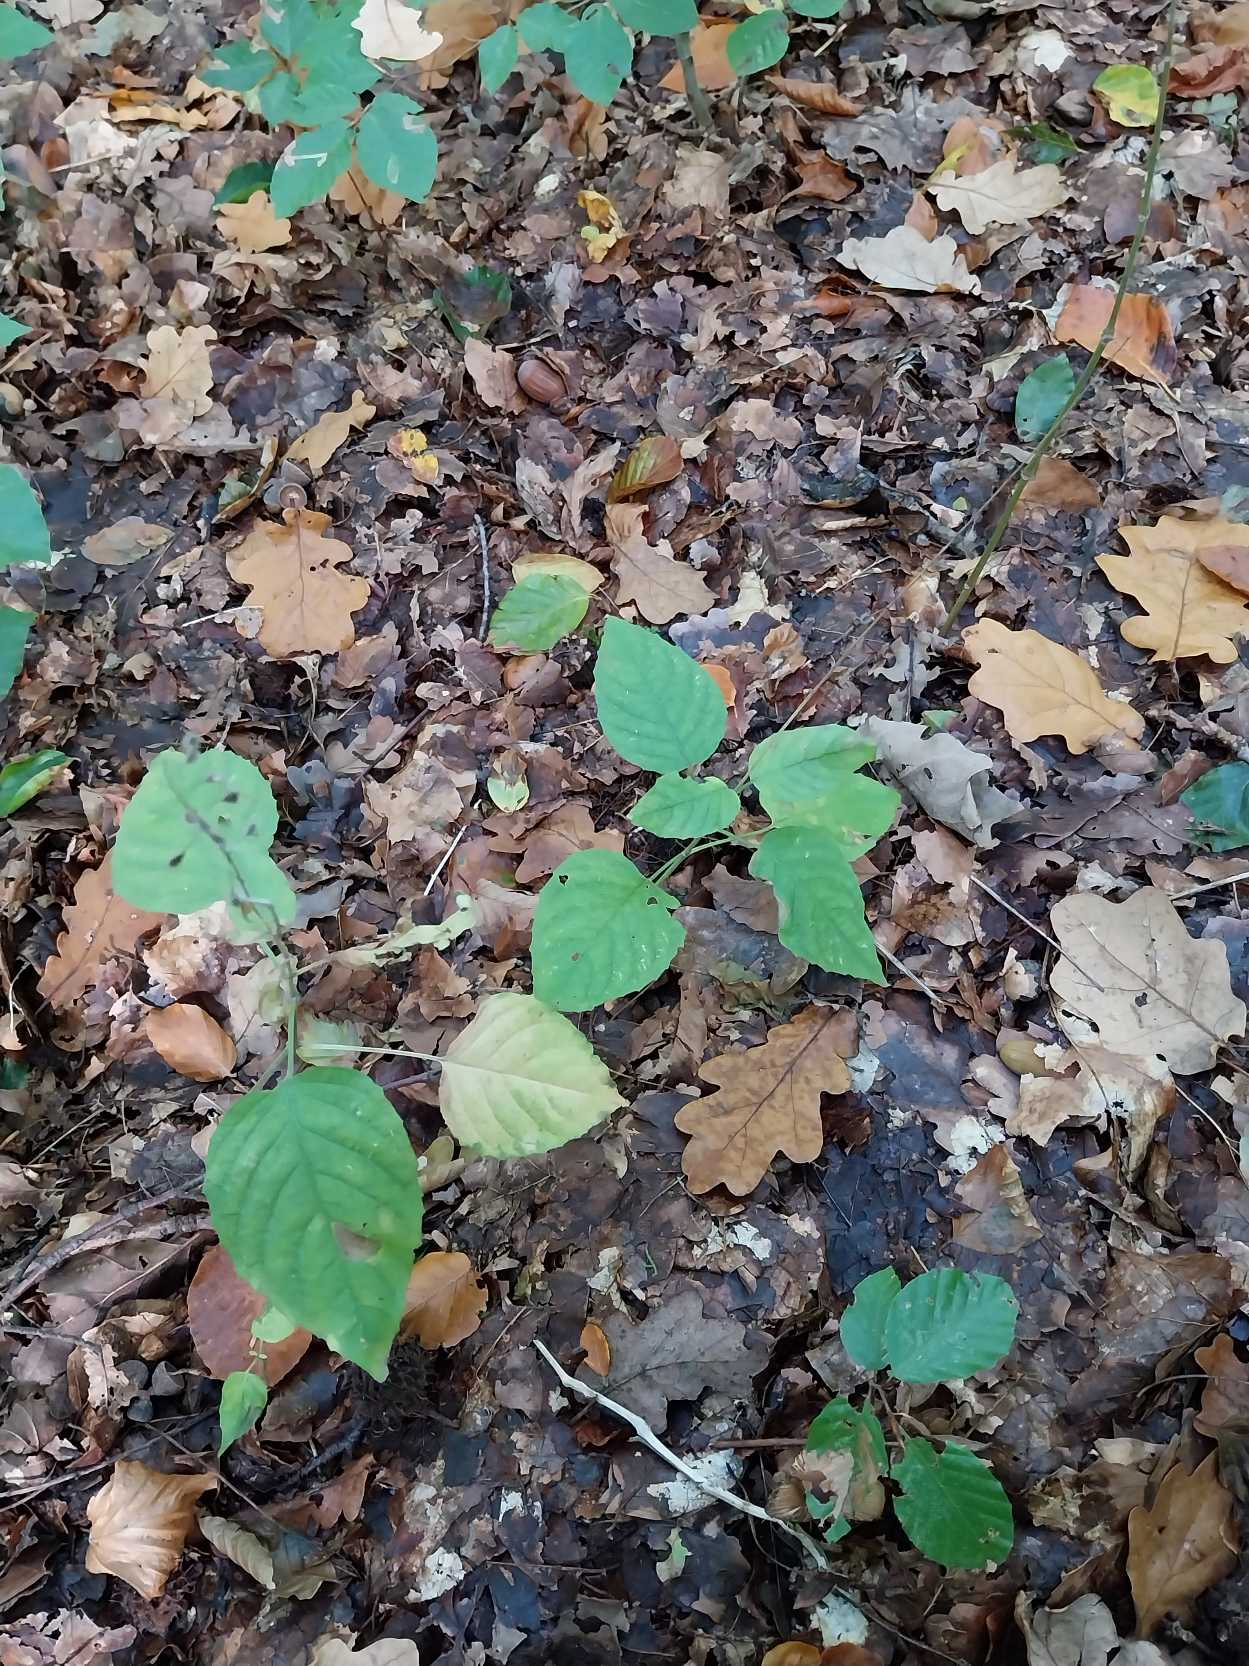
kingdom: Plantae
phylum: Tracheophyta
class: Magnoliopsida
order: Myrtales
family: Onagraceae
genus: Circaea
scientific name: Circaea lutetiana
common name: Dunet steffensurt
